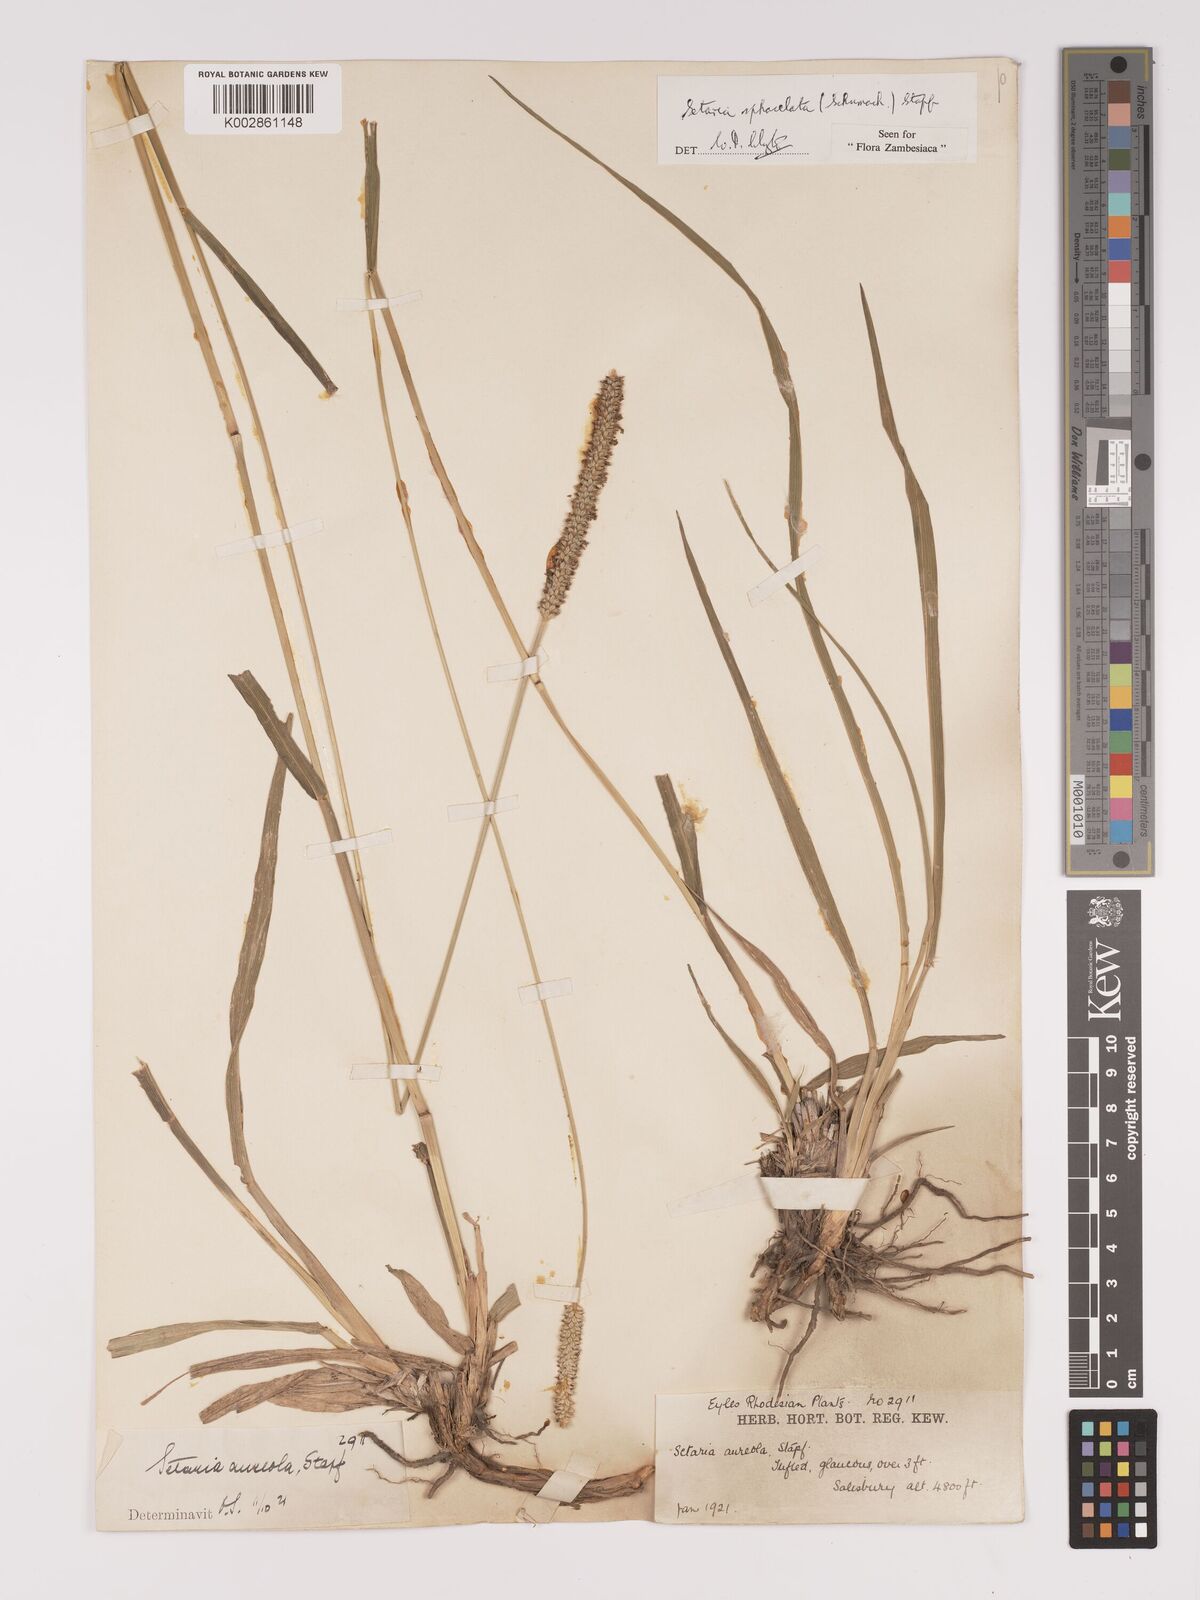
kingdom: Plantae
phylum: Tracheophyta
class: Liliopsida
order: Poales
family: Poaceae
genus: Setaria
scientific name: Setaria sphacelata
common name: African bristlegrass
